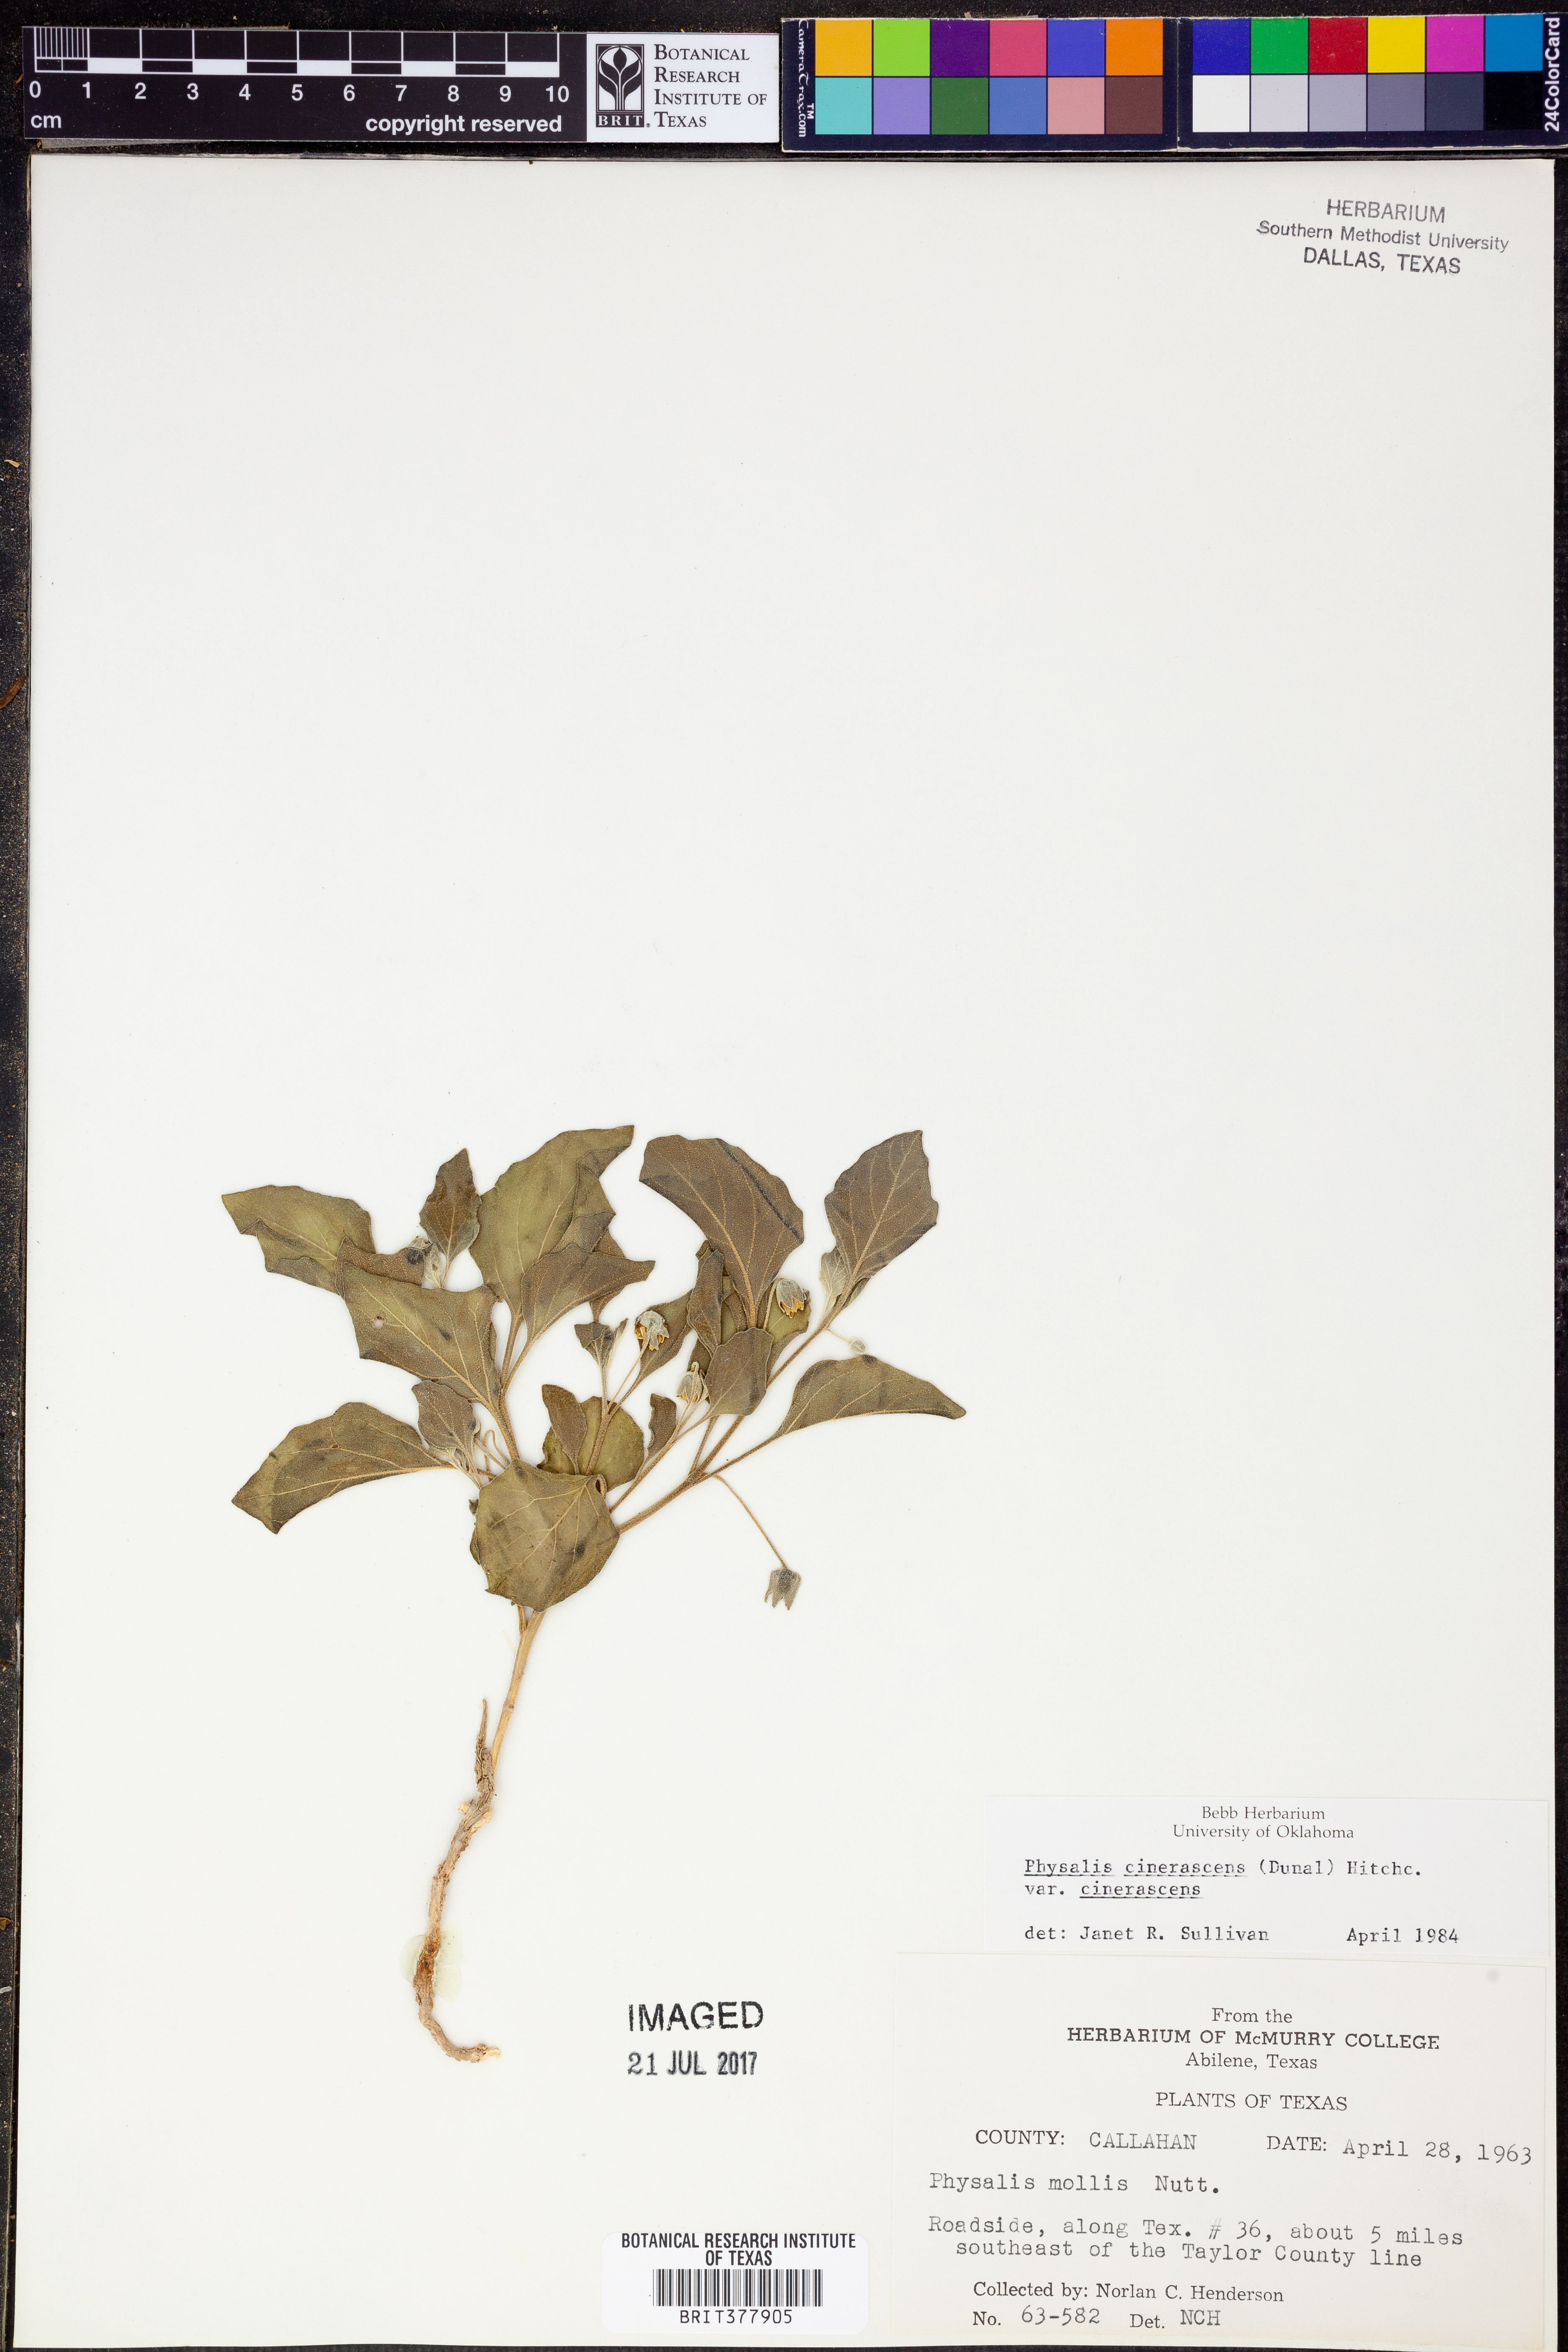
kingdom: Plantae
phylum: Tracheophyta
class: Magnoliopsida
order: Solanales
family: Solanaceae
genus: Physalis
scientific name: Physalis cinerascens
